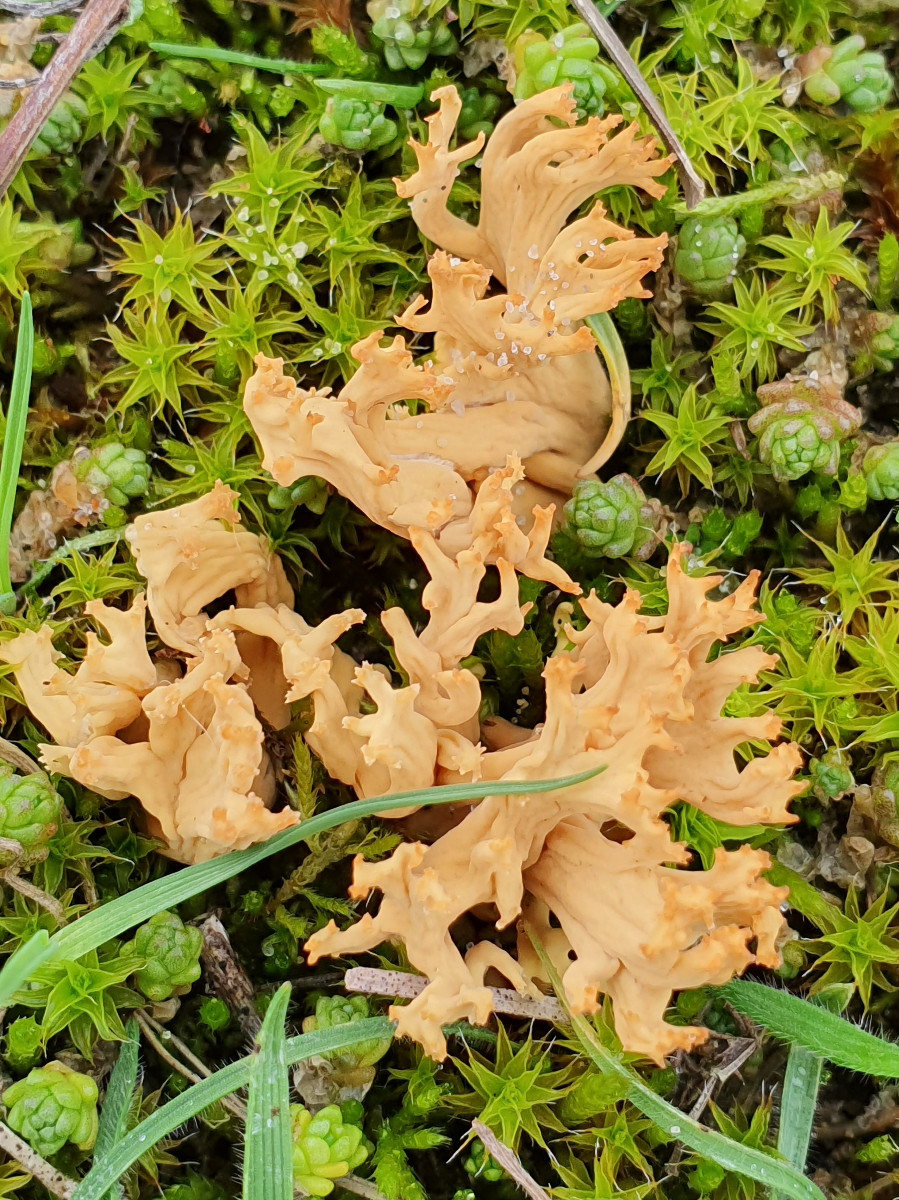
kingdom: Fungi
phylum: Basidiomycota
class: Agaricomycetes
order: Gomphales
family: Gomphaceae
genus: Phaeoclavulina
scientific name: Phaeoclavulina flaccida
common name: spinkel koralsvamp
